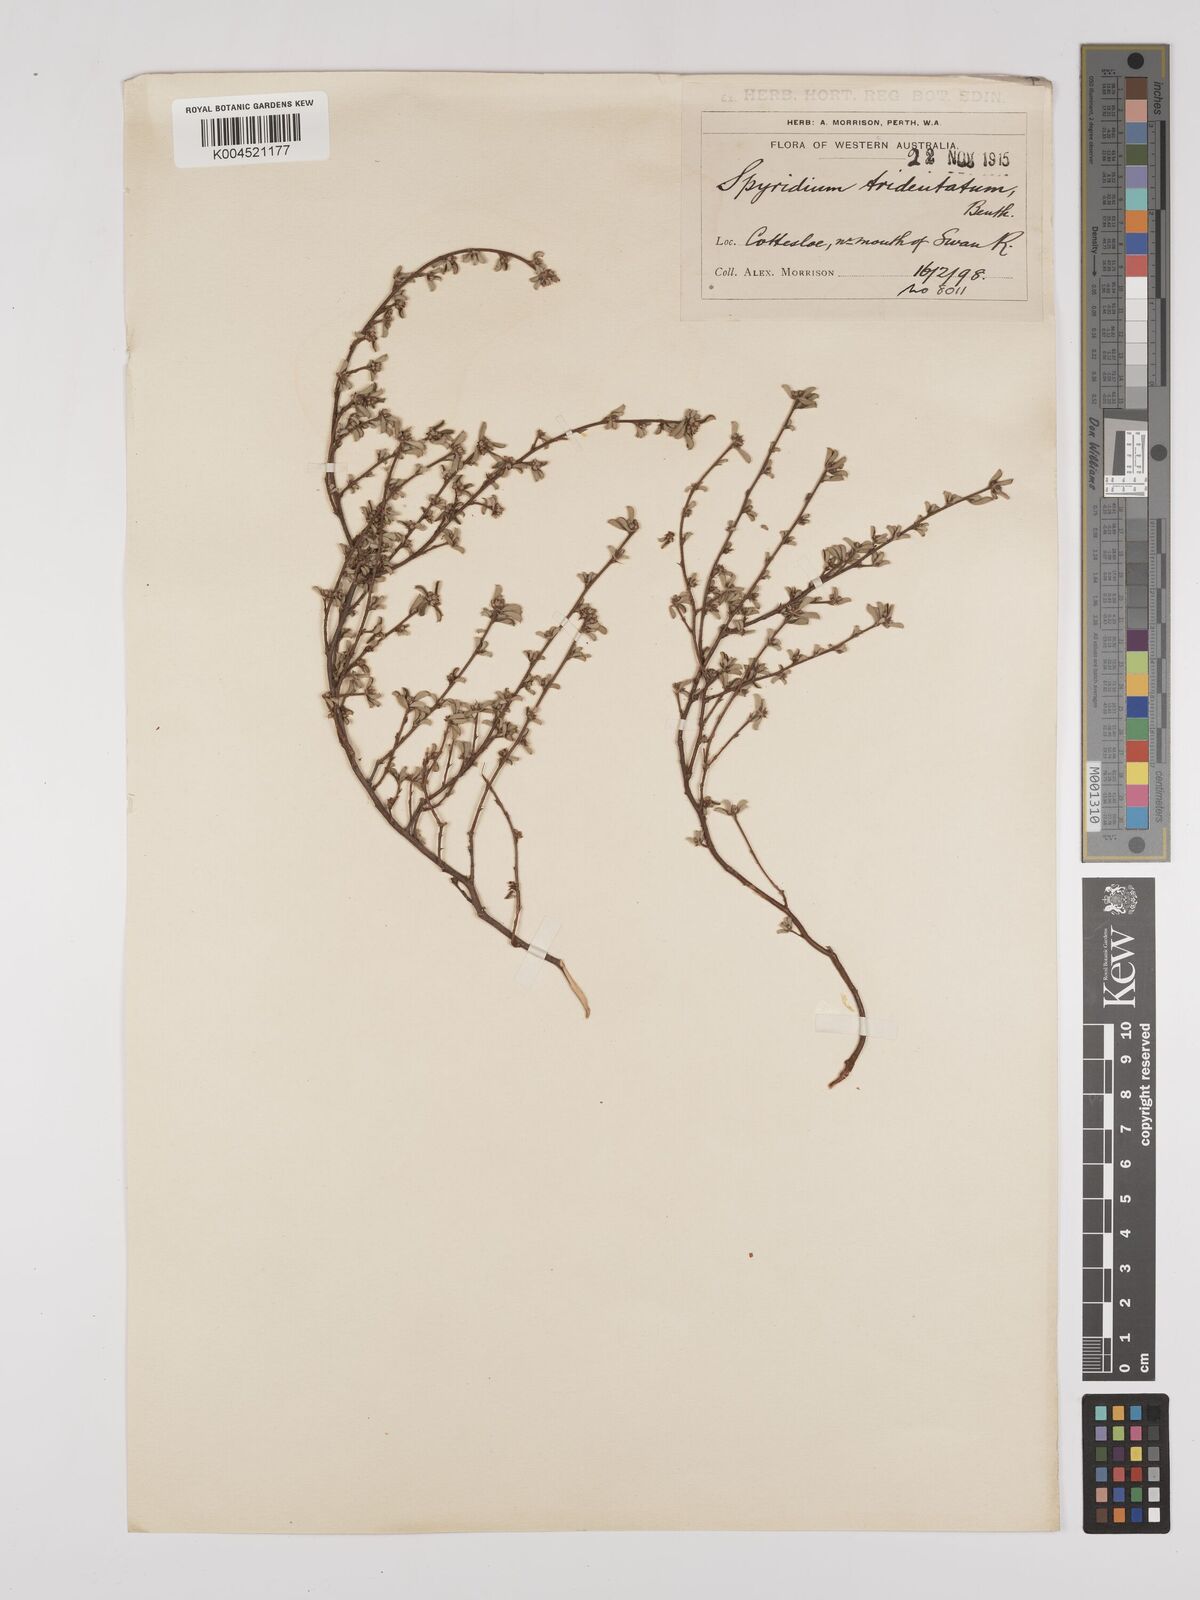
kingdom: Plantae
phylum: Tracheophyta
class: Magnoliopsida
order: Rosales
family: Rhamnaceae
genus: Stenanthemum
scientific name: Stenanthemum tridentatum
